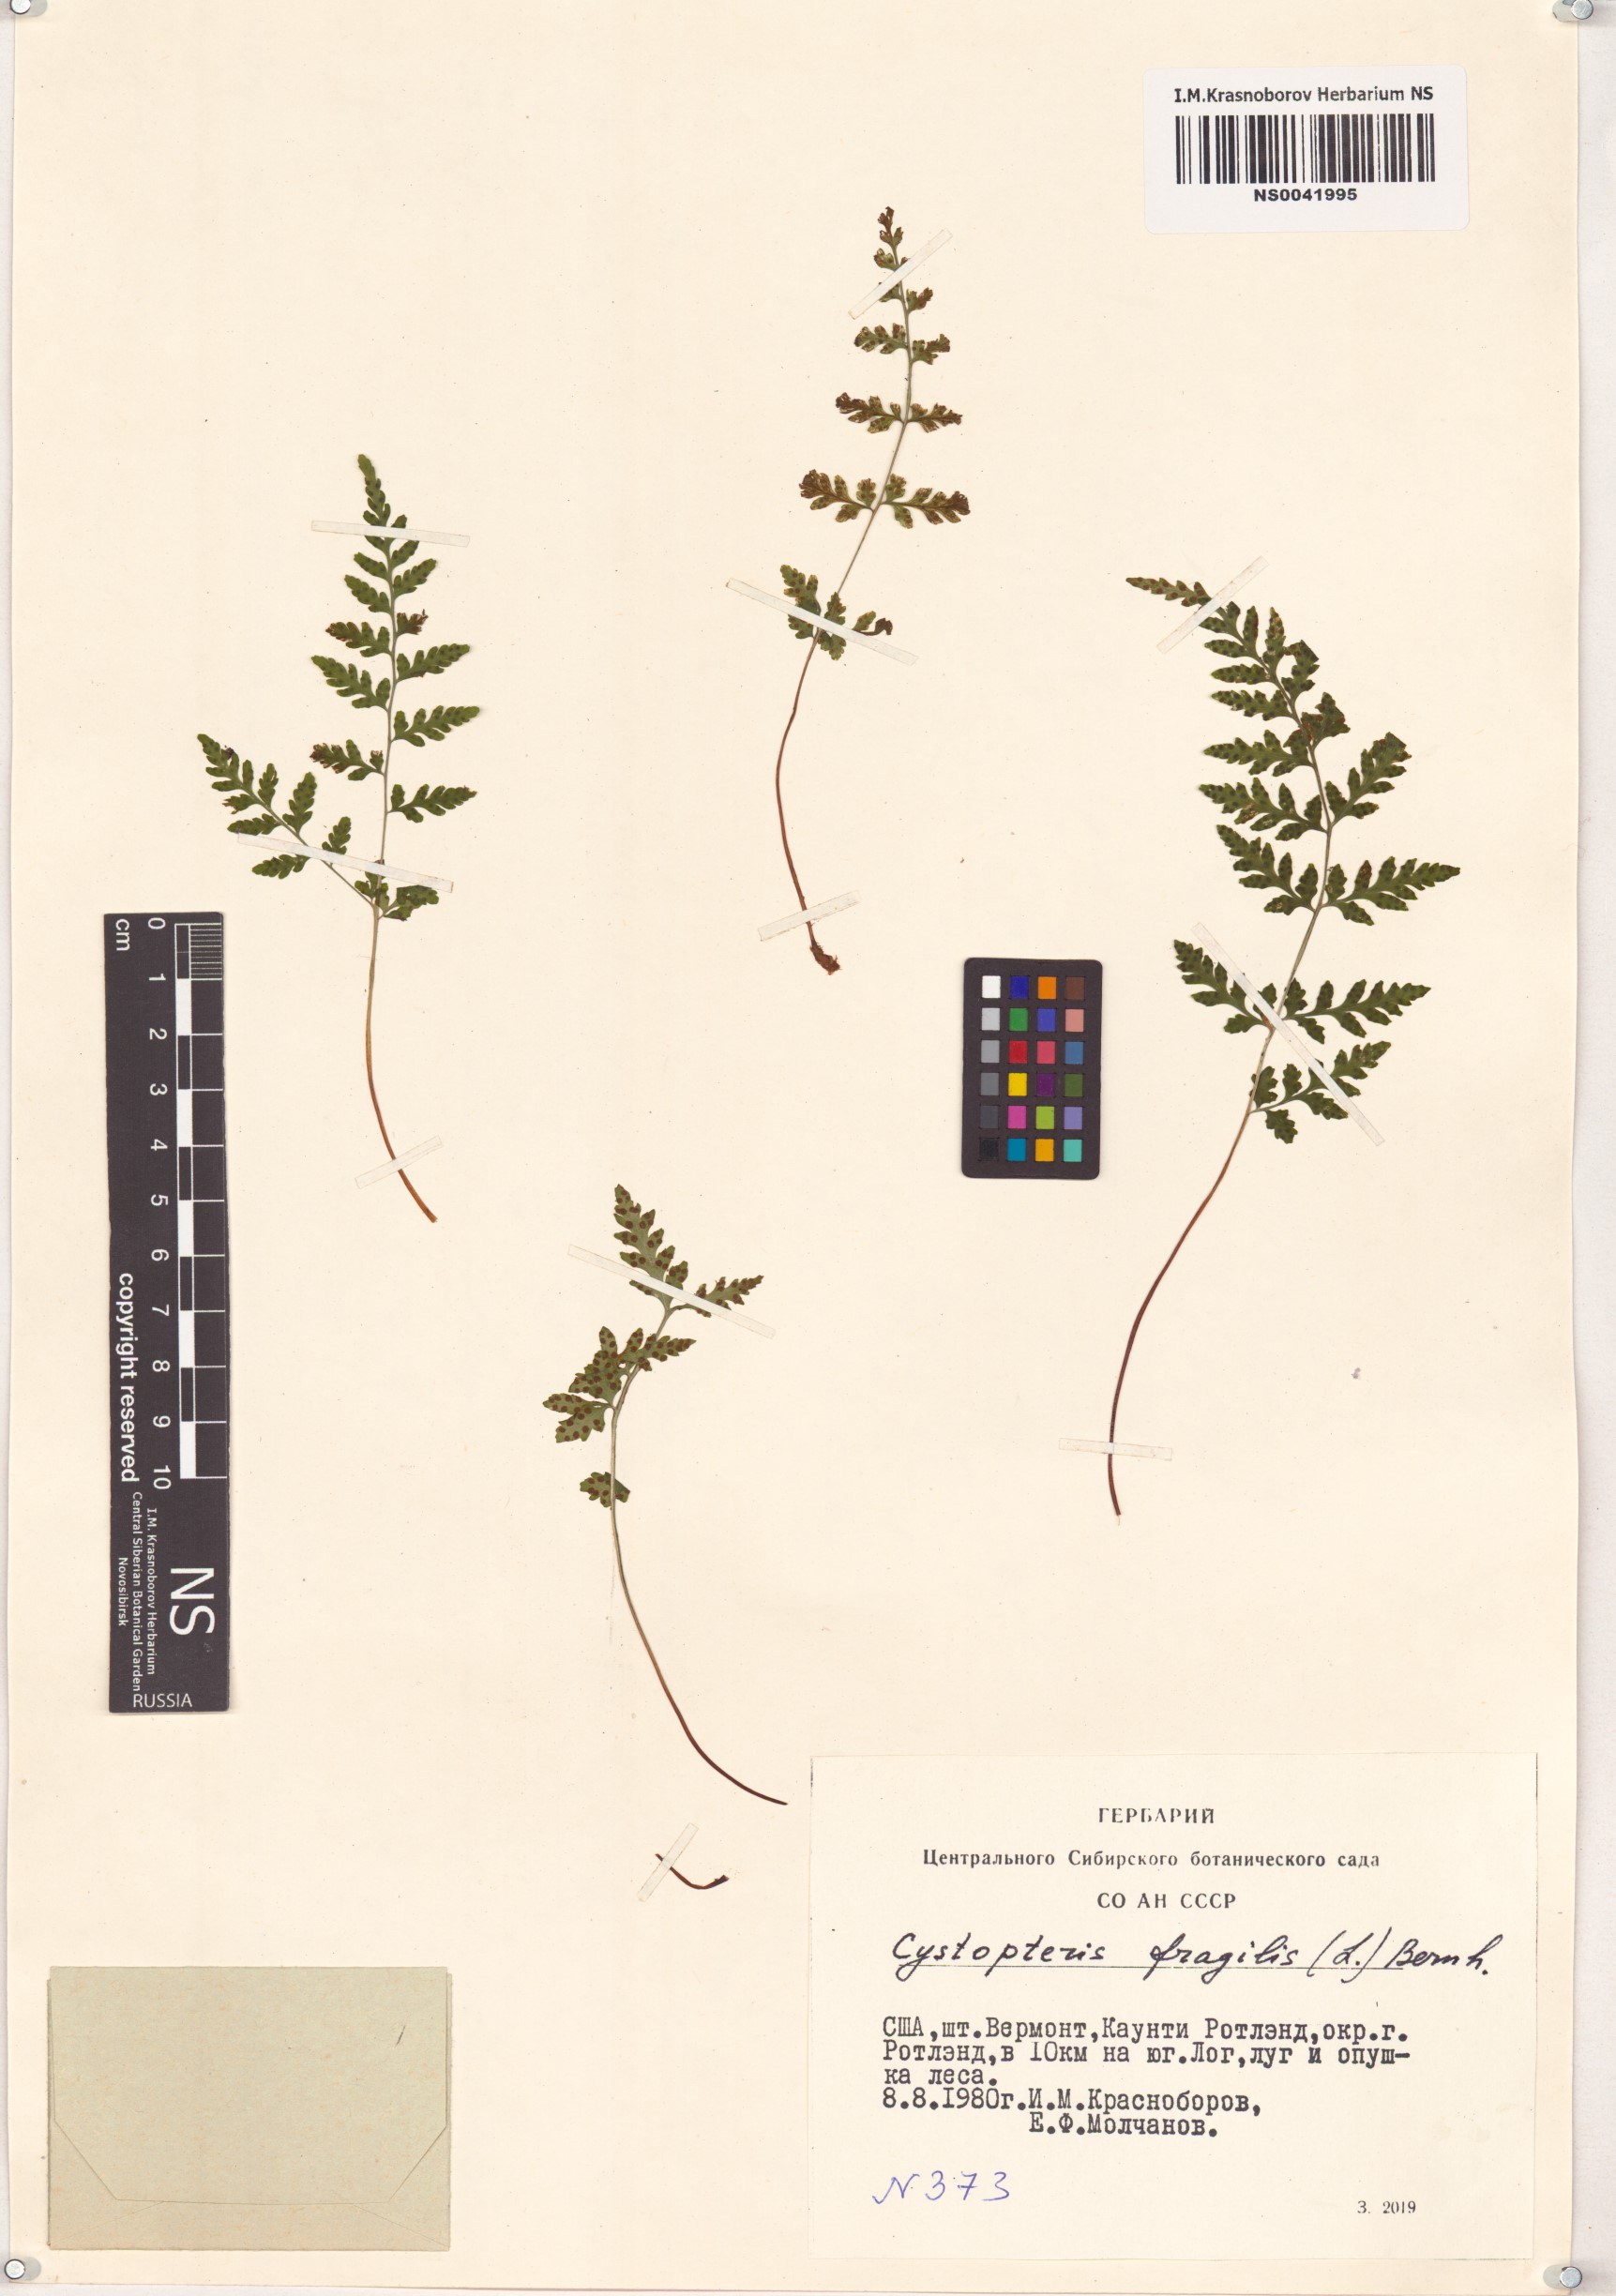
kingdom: Plantae
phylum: Tracheophyta
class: Polypodiopsida
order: Polypodiales
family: Cystopteridaceae
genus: Cystopteris
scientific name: Cystopteris fragilis
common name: Brittle bladder fern
